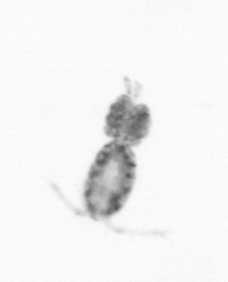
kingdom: Animalia
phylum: Arthropoda
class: Copepoda
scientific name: Copepoda
